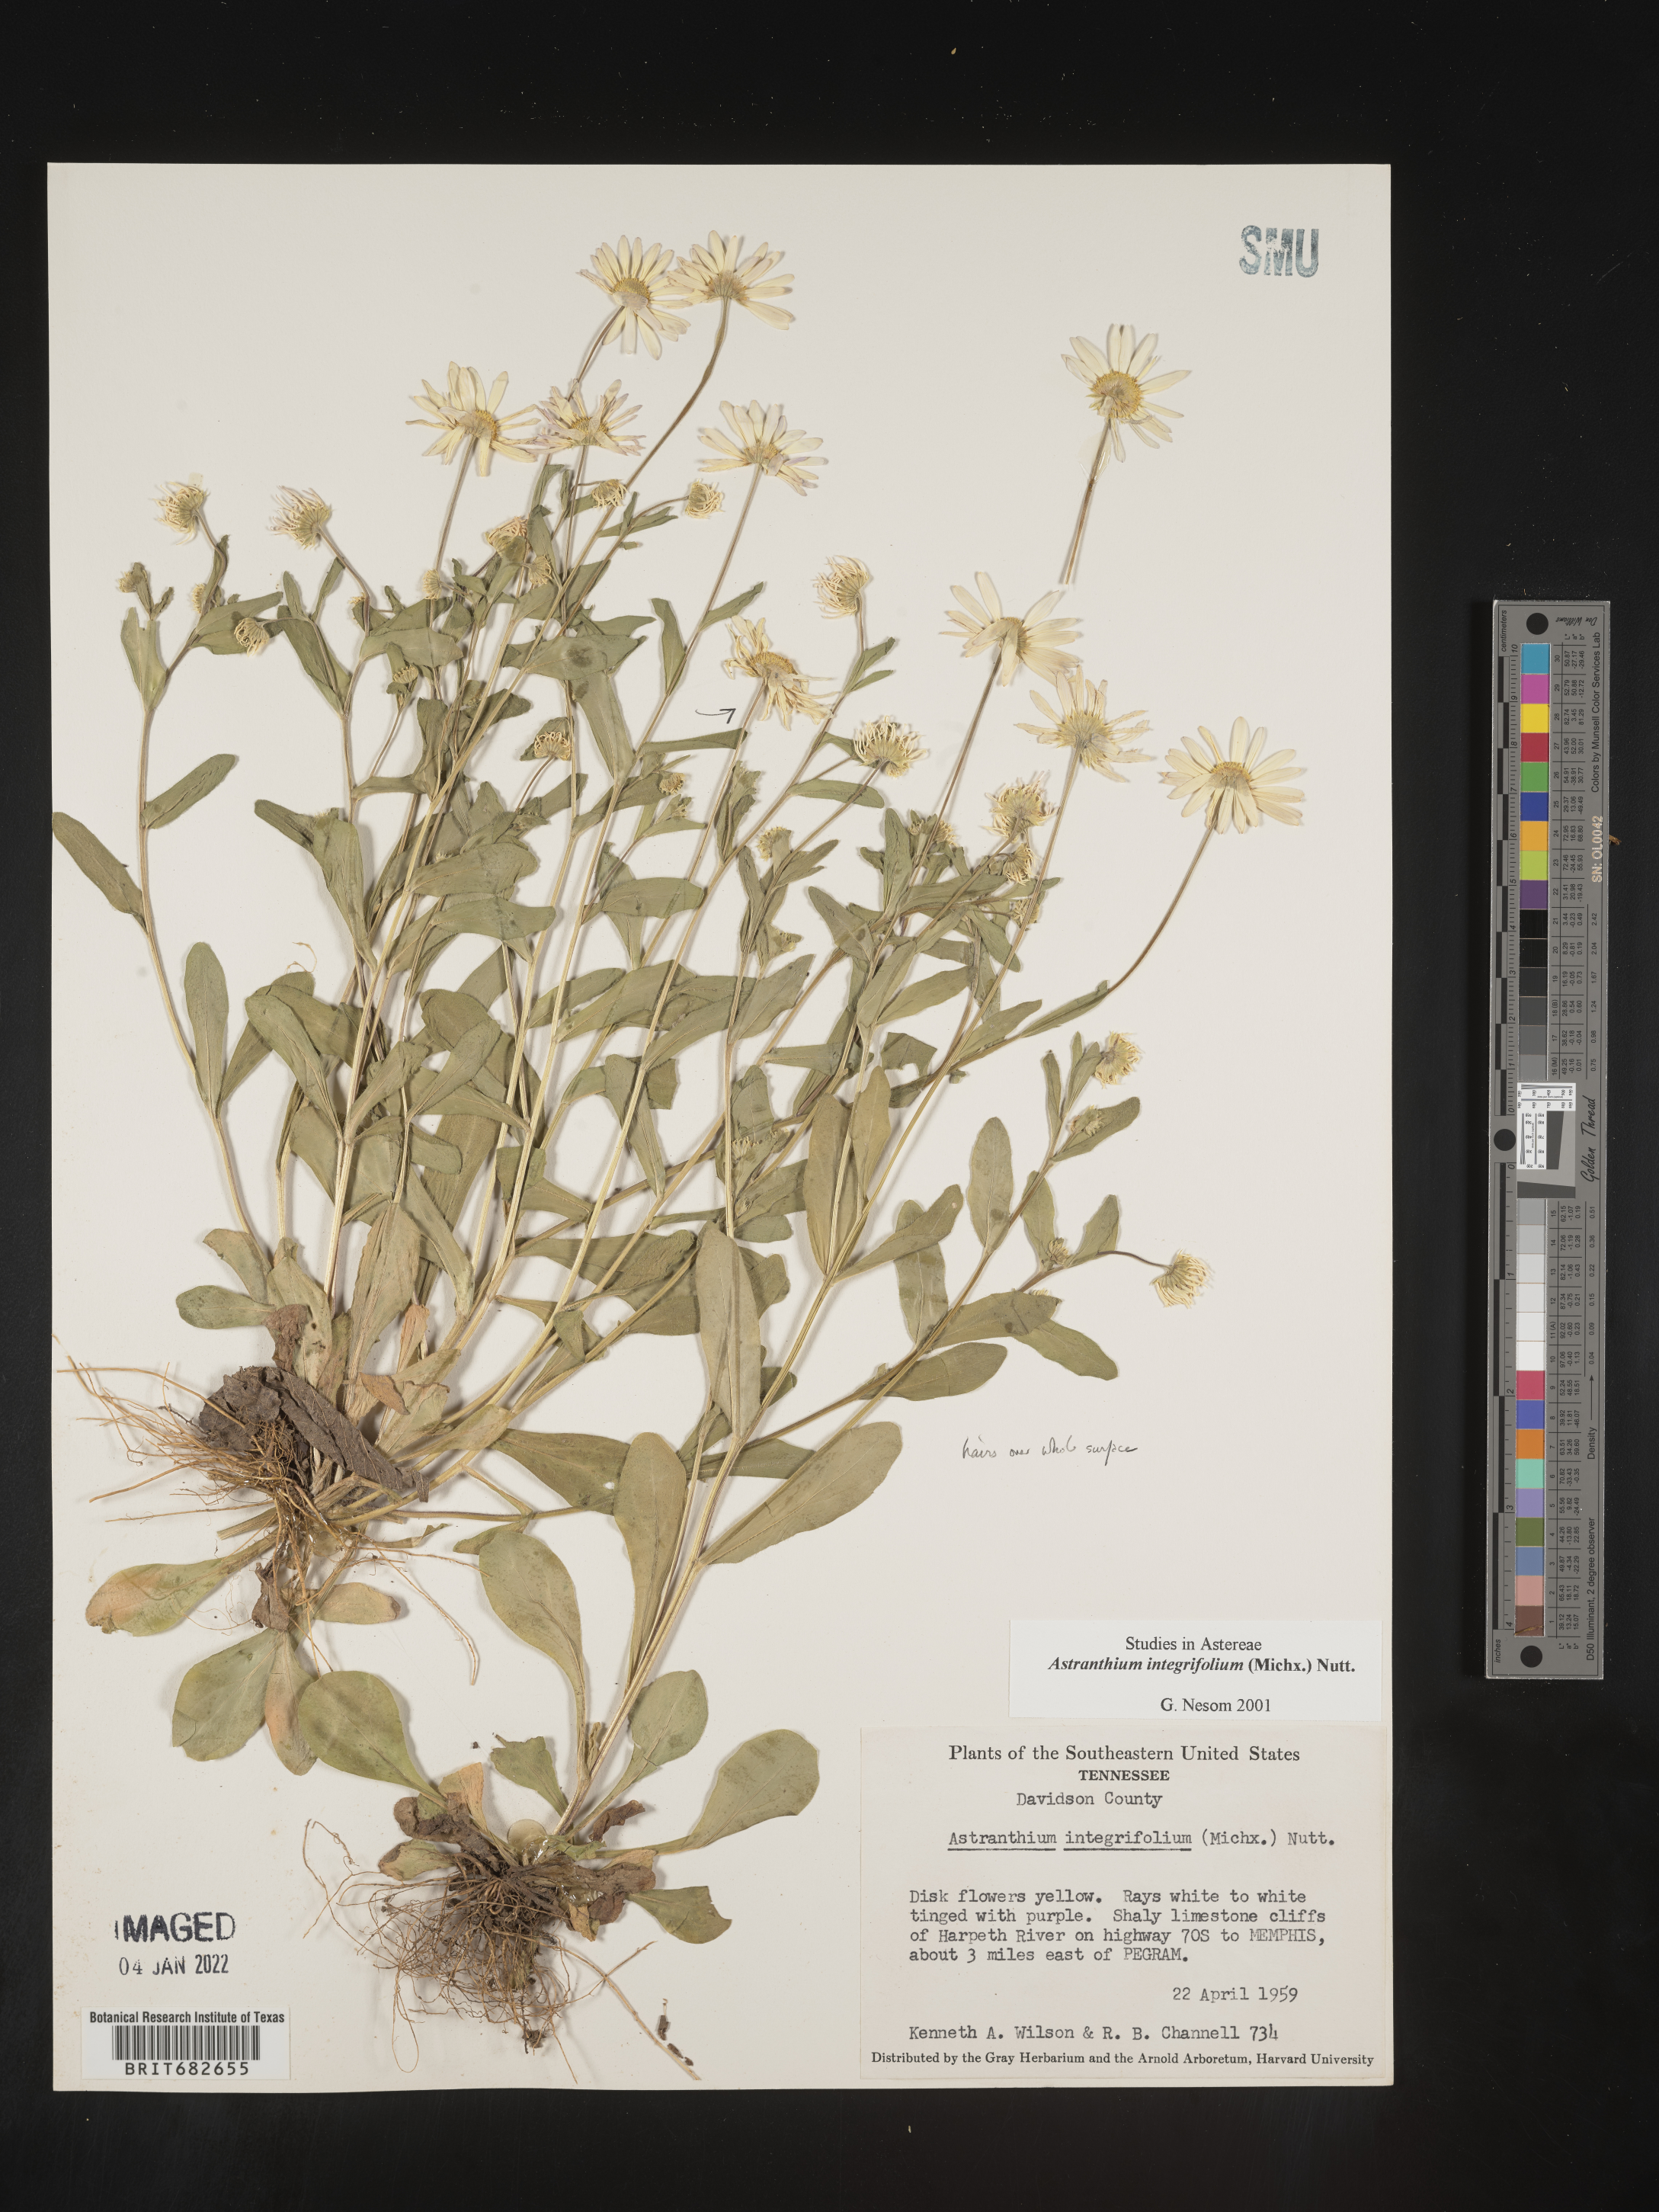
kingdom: Plantae
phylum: Tracheophyta
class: Magnoliopsida
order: Asterales
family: Asteraceae
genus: Astranthium
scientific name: Astranthium
